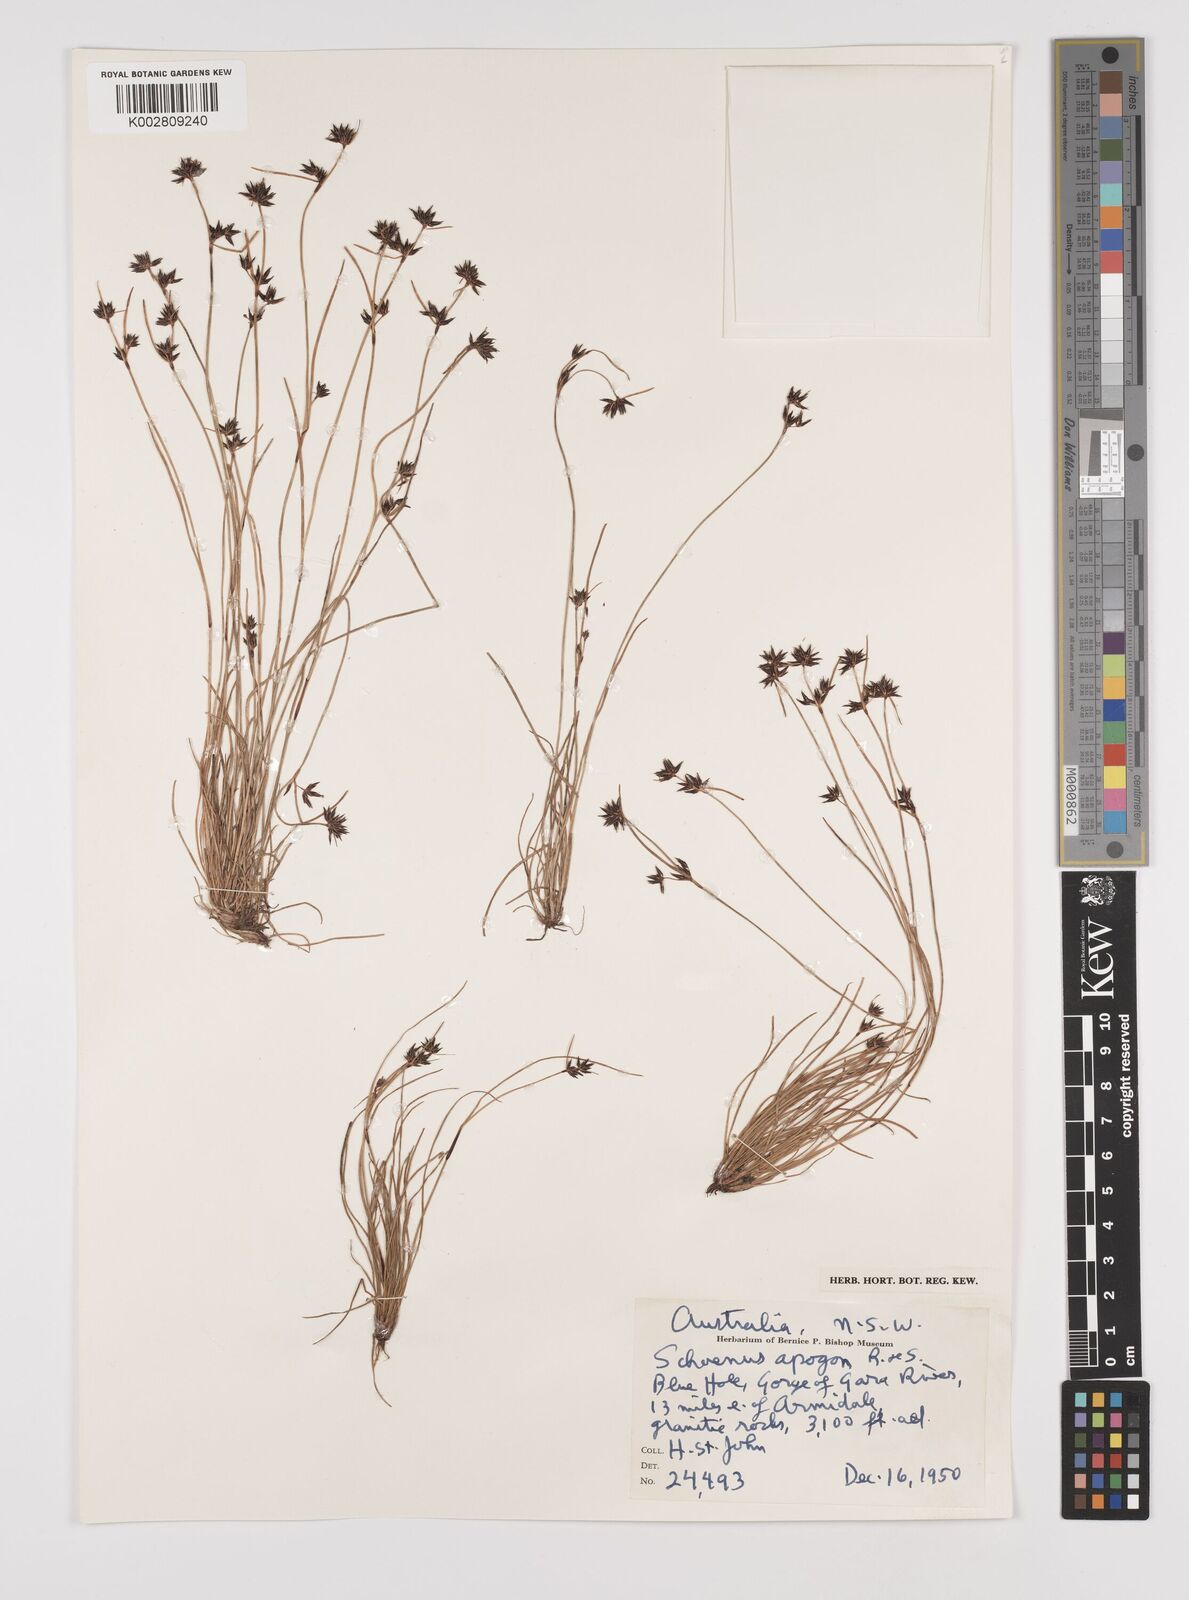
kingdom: Plantae
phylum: Tracheophyta
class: Liliopsida
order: Poales
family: Cyperaceae
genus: Schoenus
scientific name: Schoenus apogon
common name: Smooth bogrush
